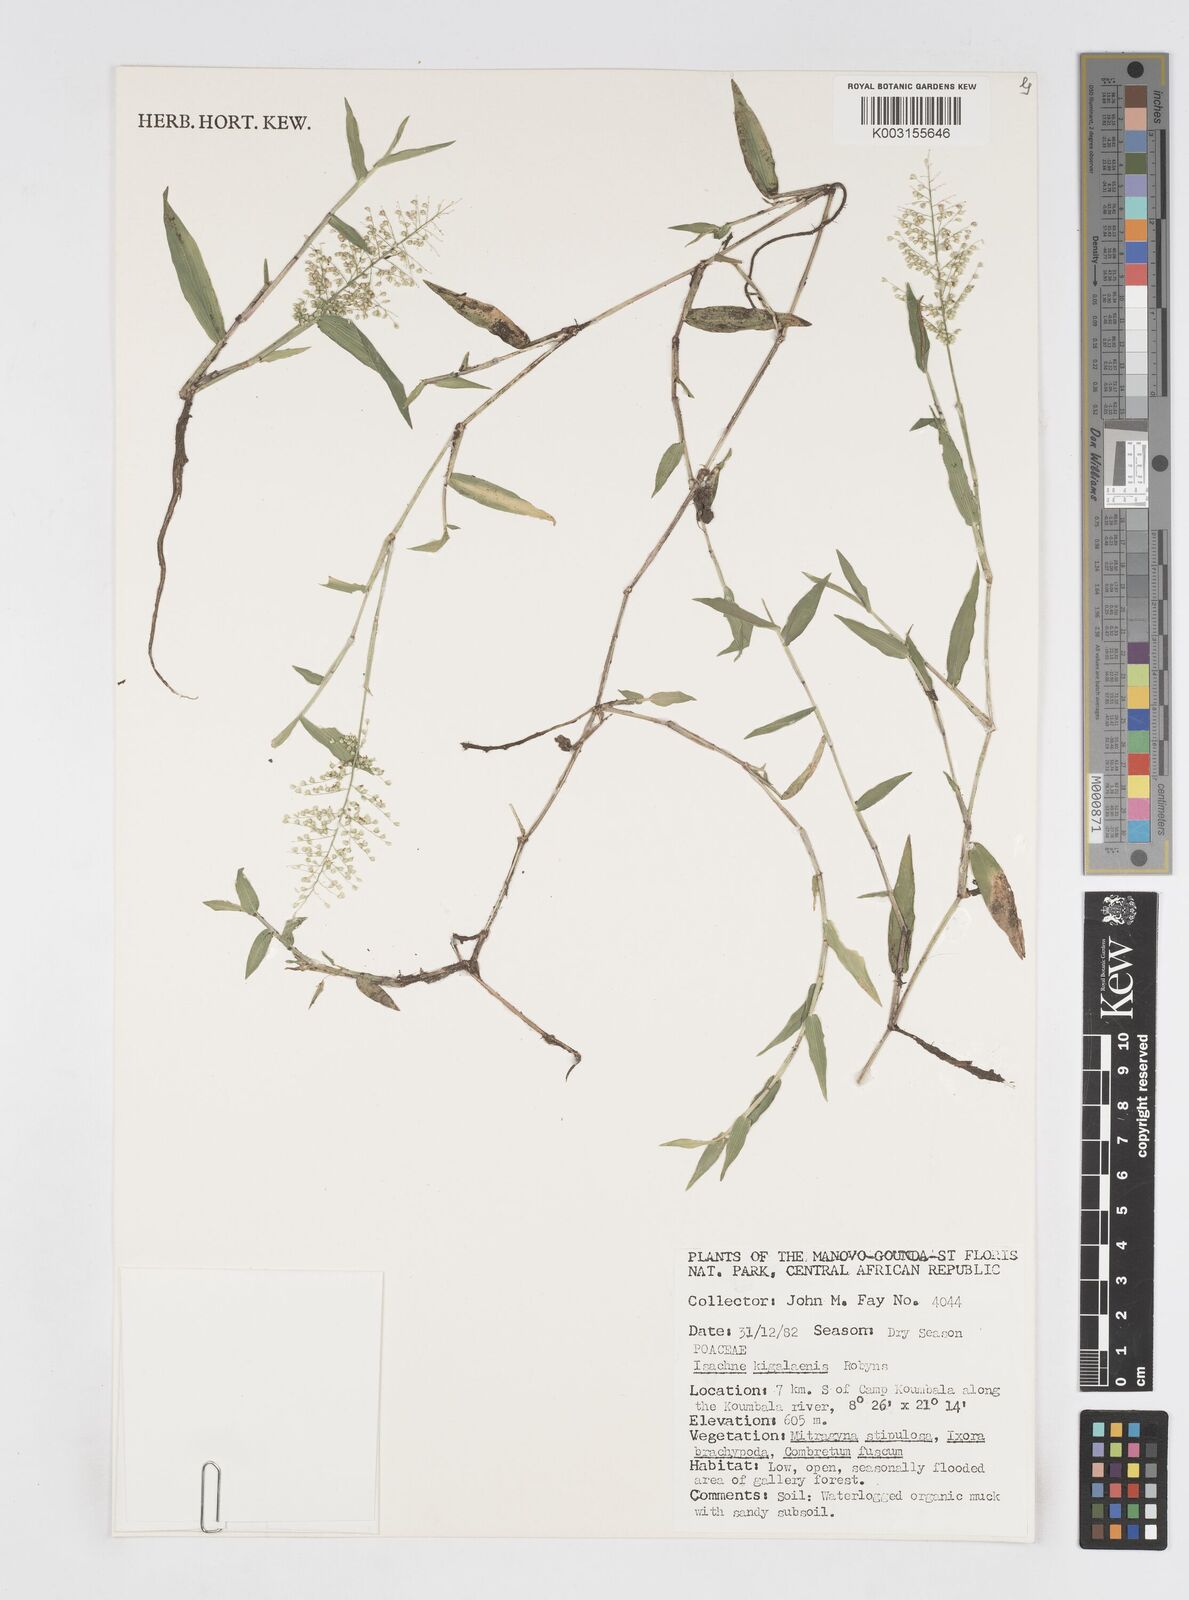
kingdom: Plantae
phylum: Tracheophyta
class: Liliopsida
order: Poales
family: Poaceae
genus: Isachne
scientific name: Isachne kiyalaensis
